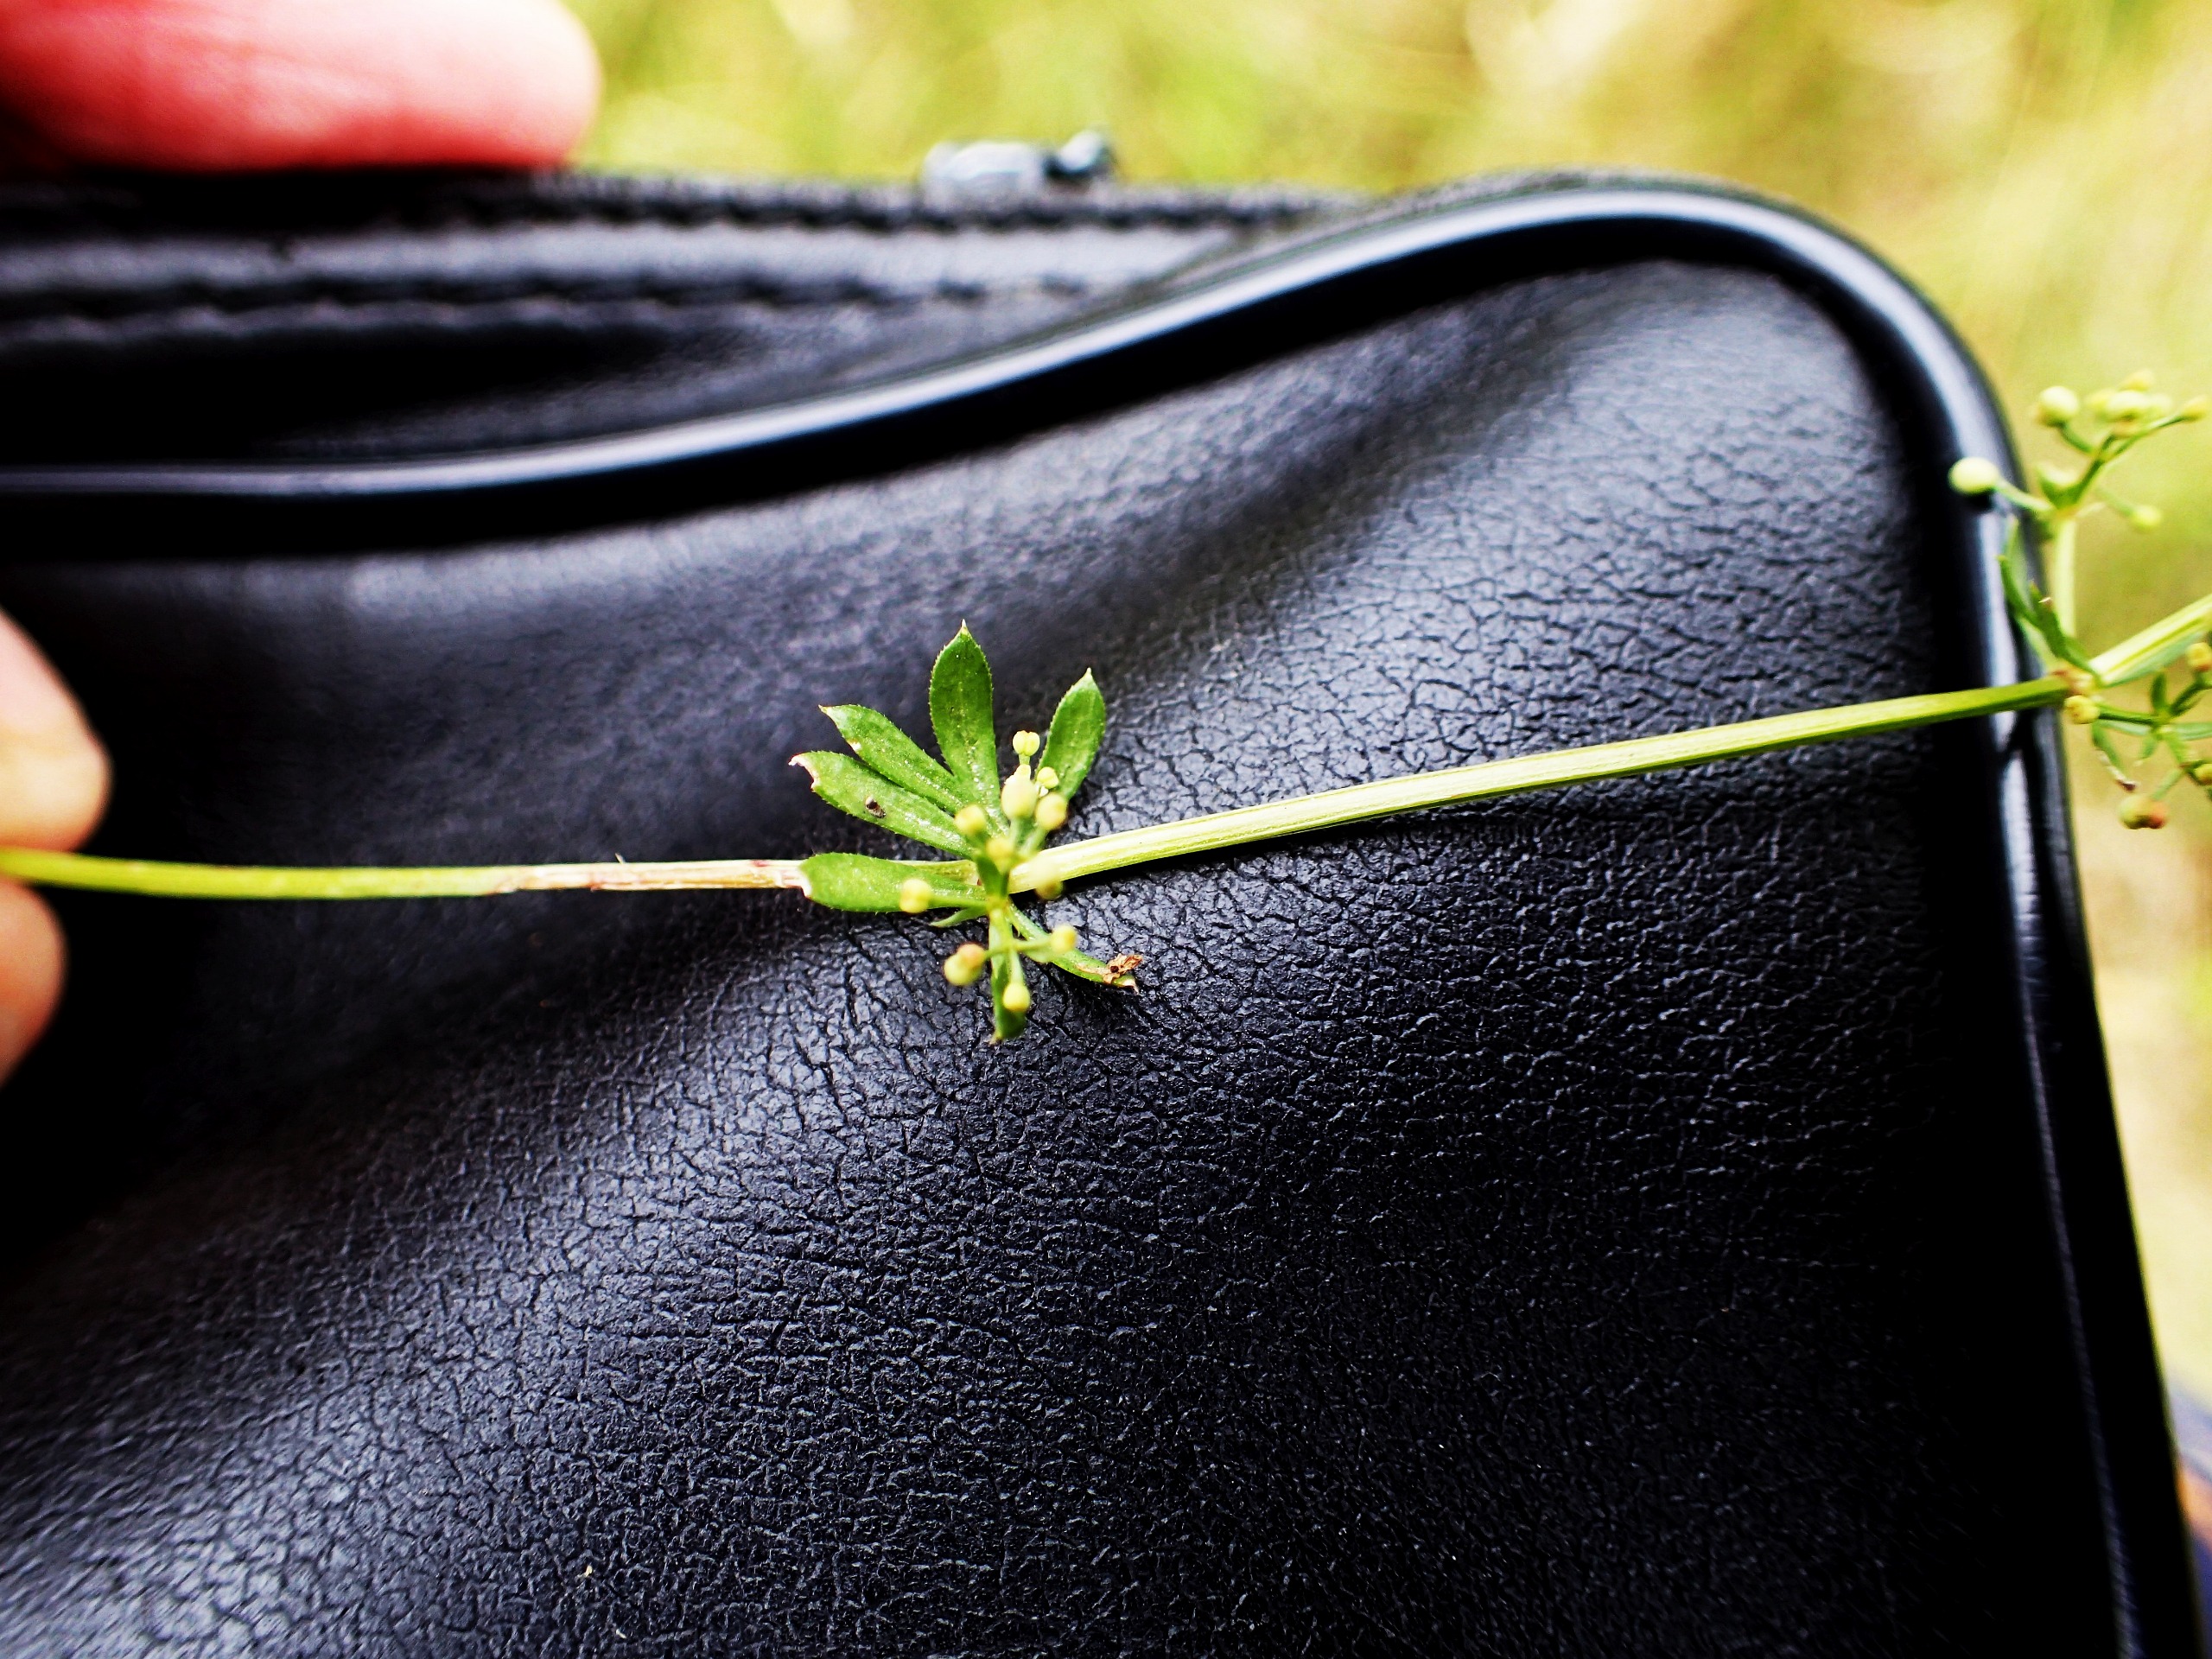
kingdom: Plantae
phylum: Tracheophyta
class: Magnoliopsida
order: Gentianales
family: Rubiaceae
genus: Galium
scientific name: Galium mollugo
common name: Hvid snerre
